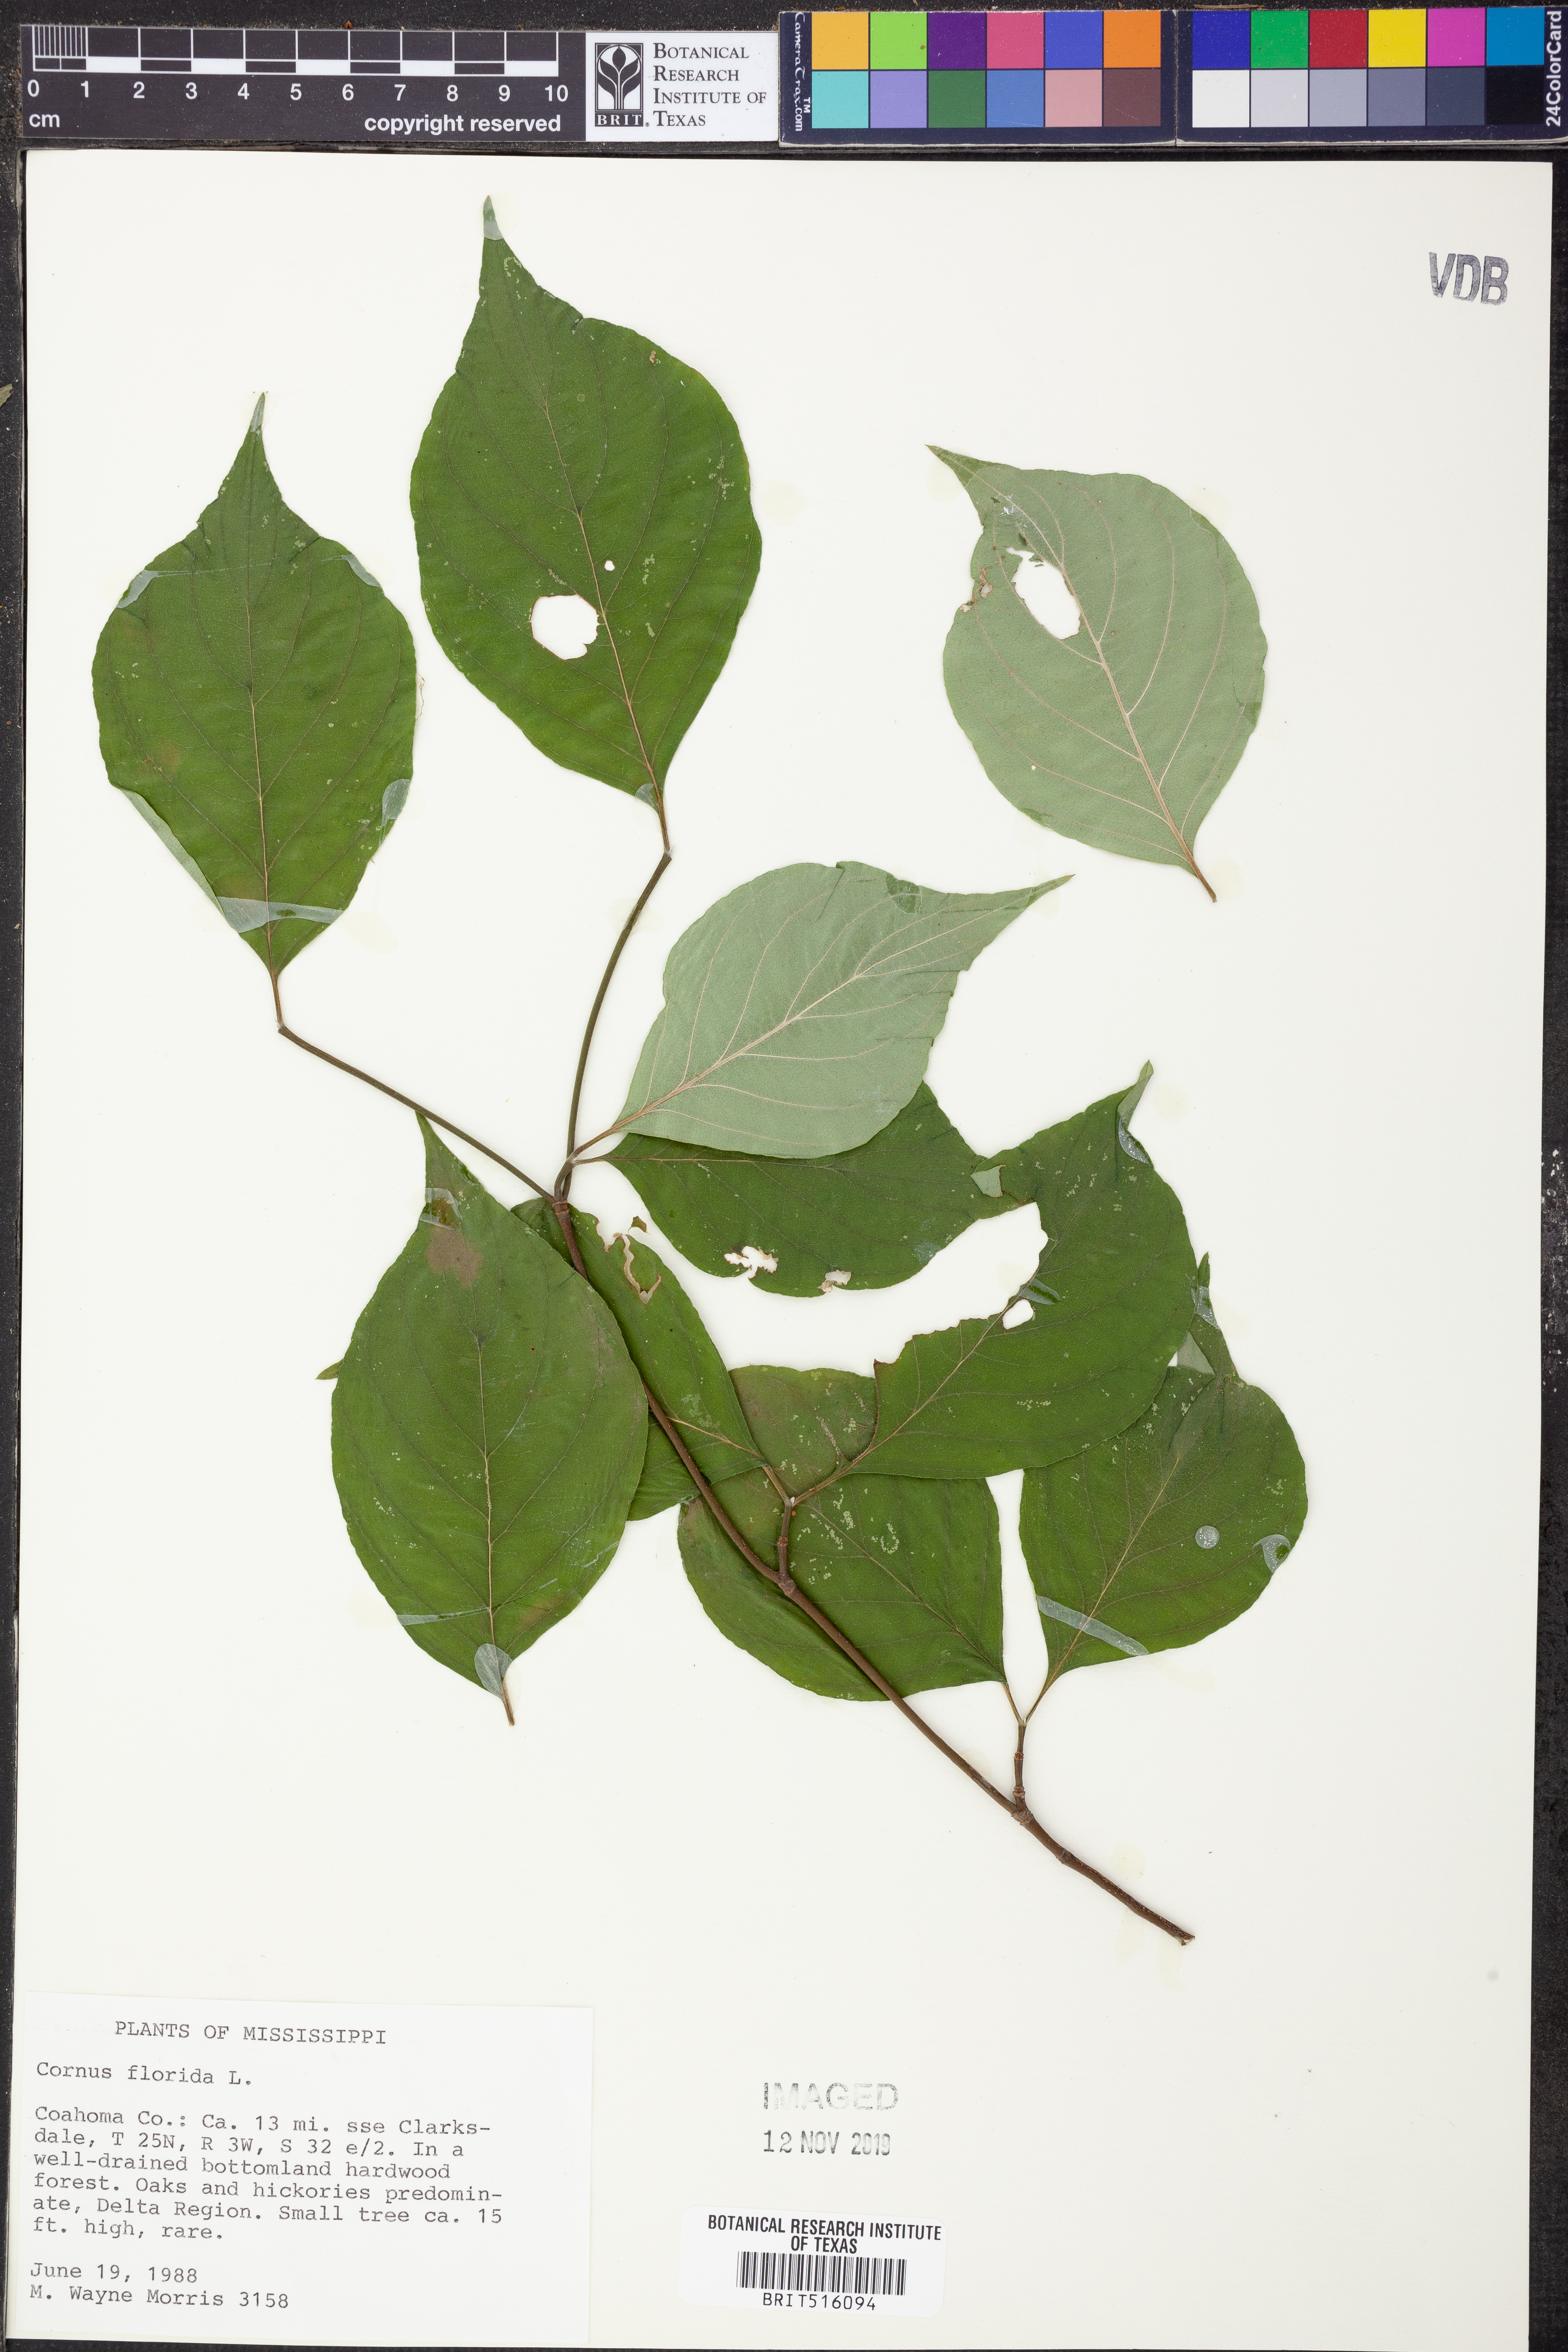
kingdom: Plantae
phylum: Tracheophyta
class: Magnoliopsida
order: Cornales
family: Cornaceae
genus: Cornus
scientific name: Cornus florida
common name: Flowering dogwood
